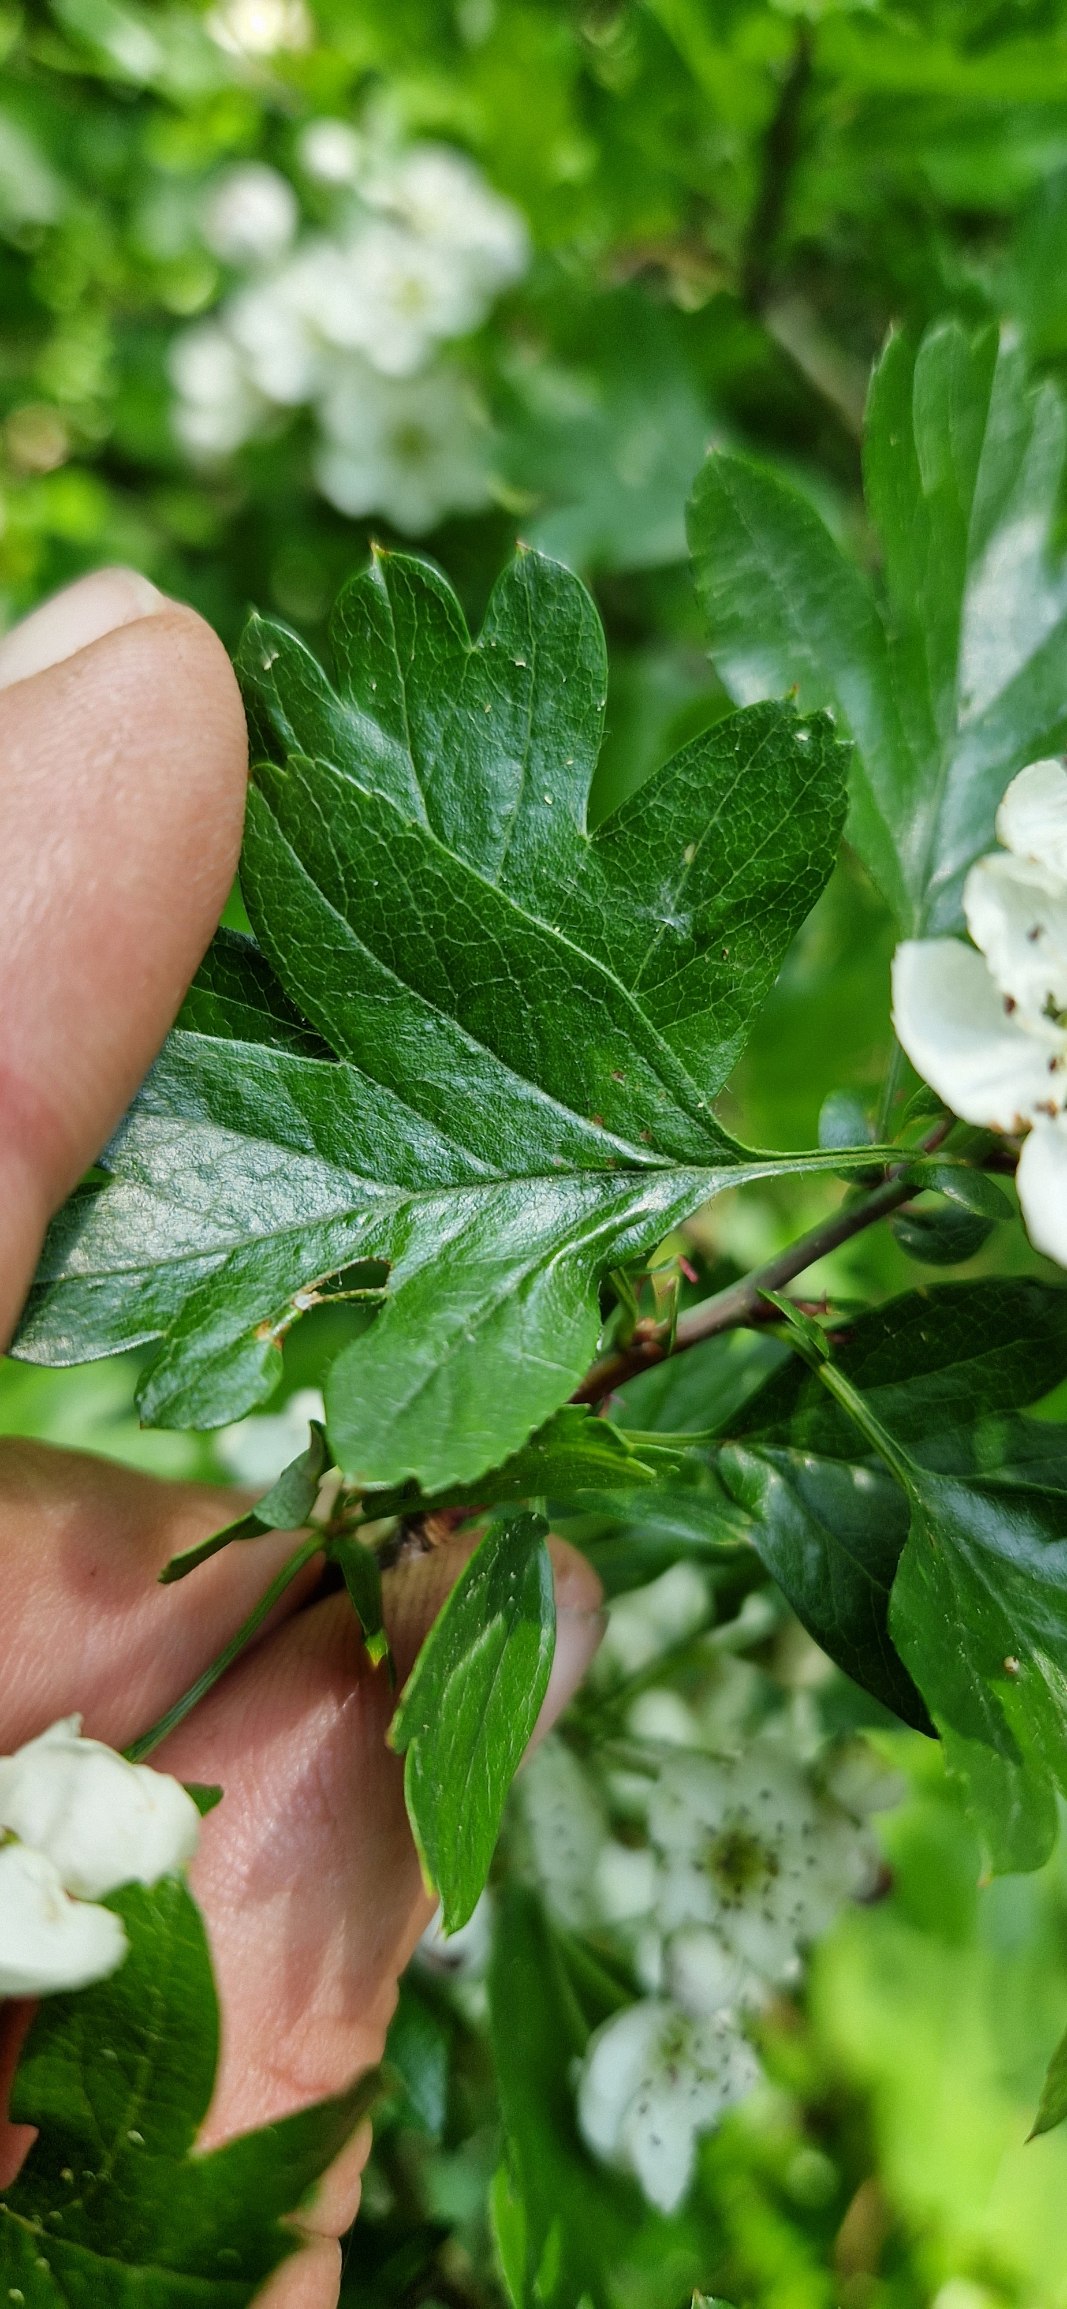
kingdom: Plantae
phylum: Tracheophyta
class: Magnoliopsida
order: Rosales
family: Rosaceae
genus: Crataegus
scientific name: Crataegus monogyna
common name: Engriflet hvidtjørn
